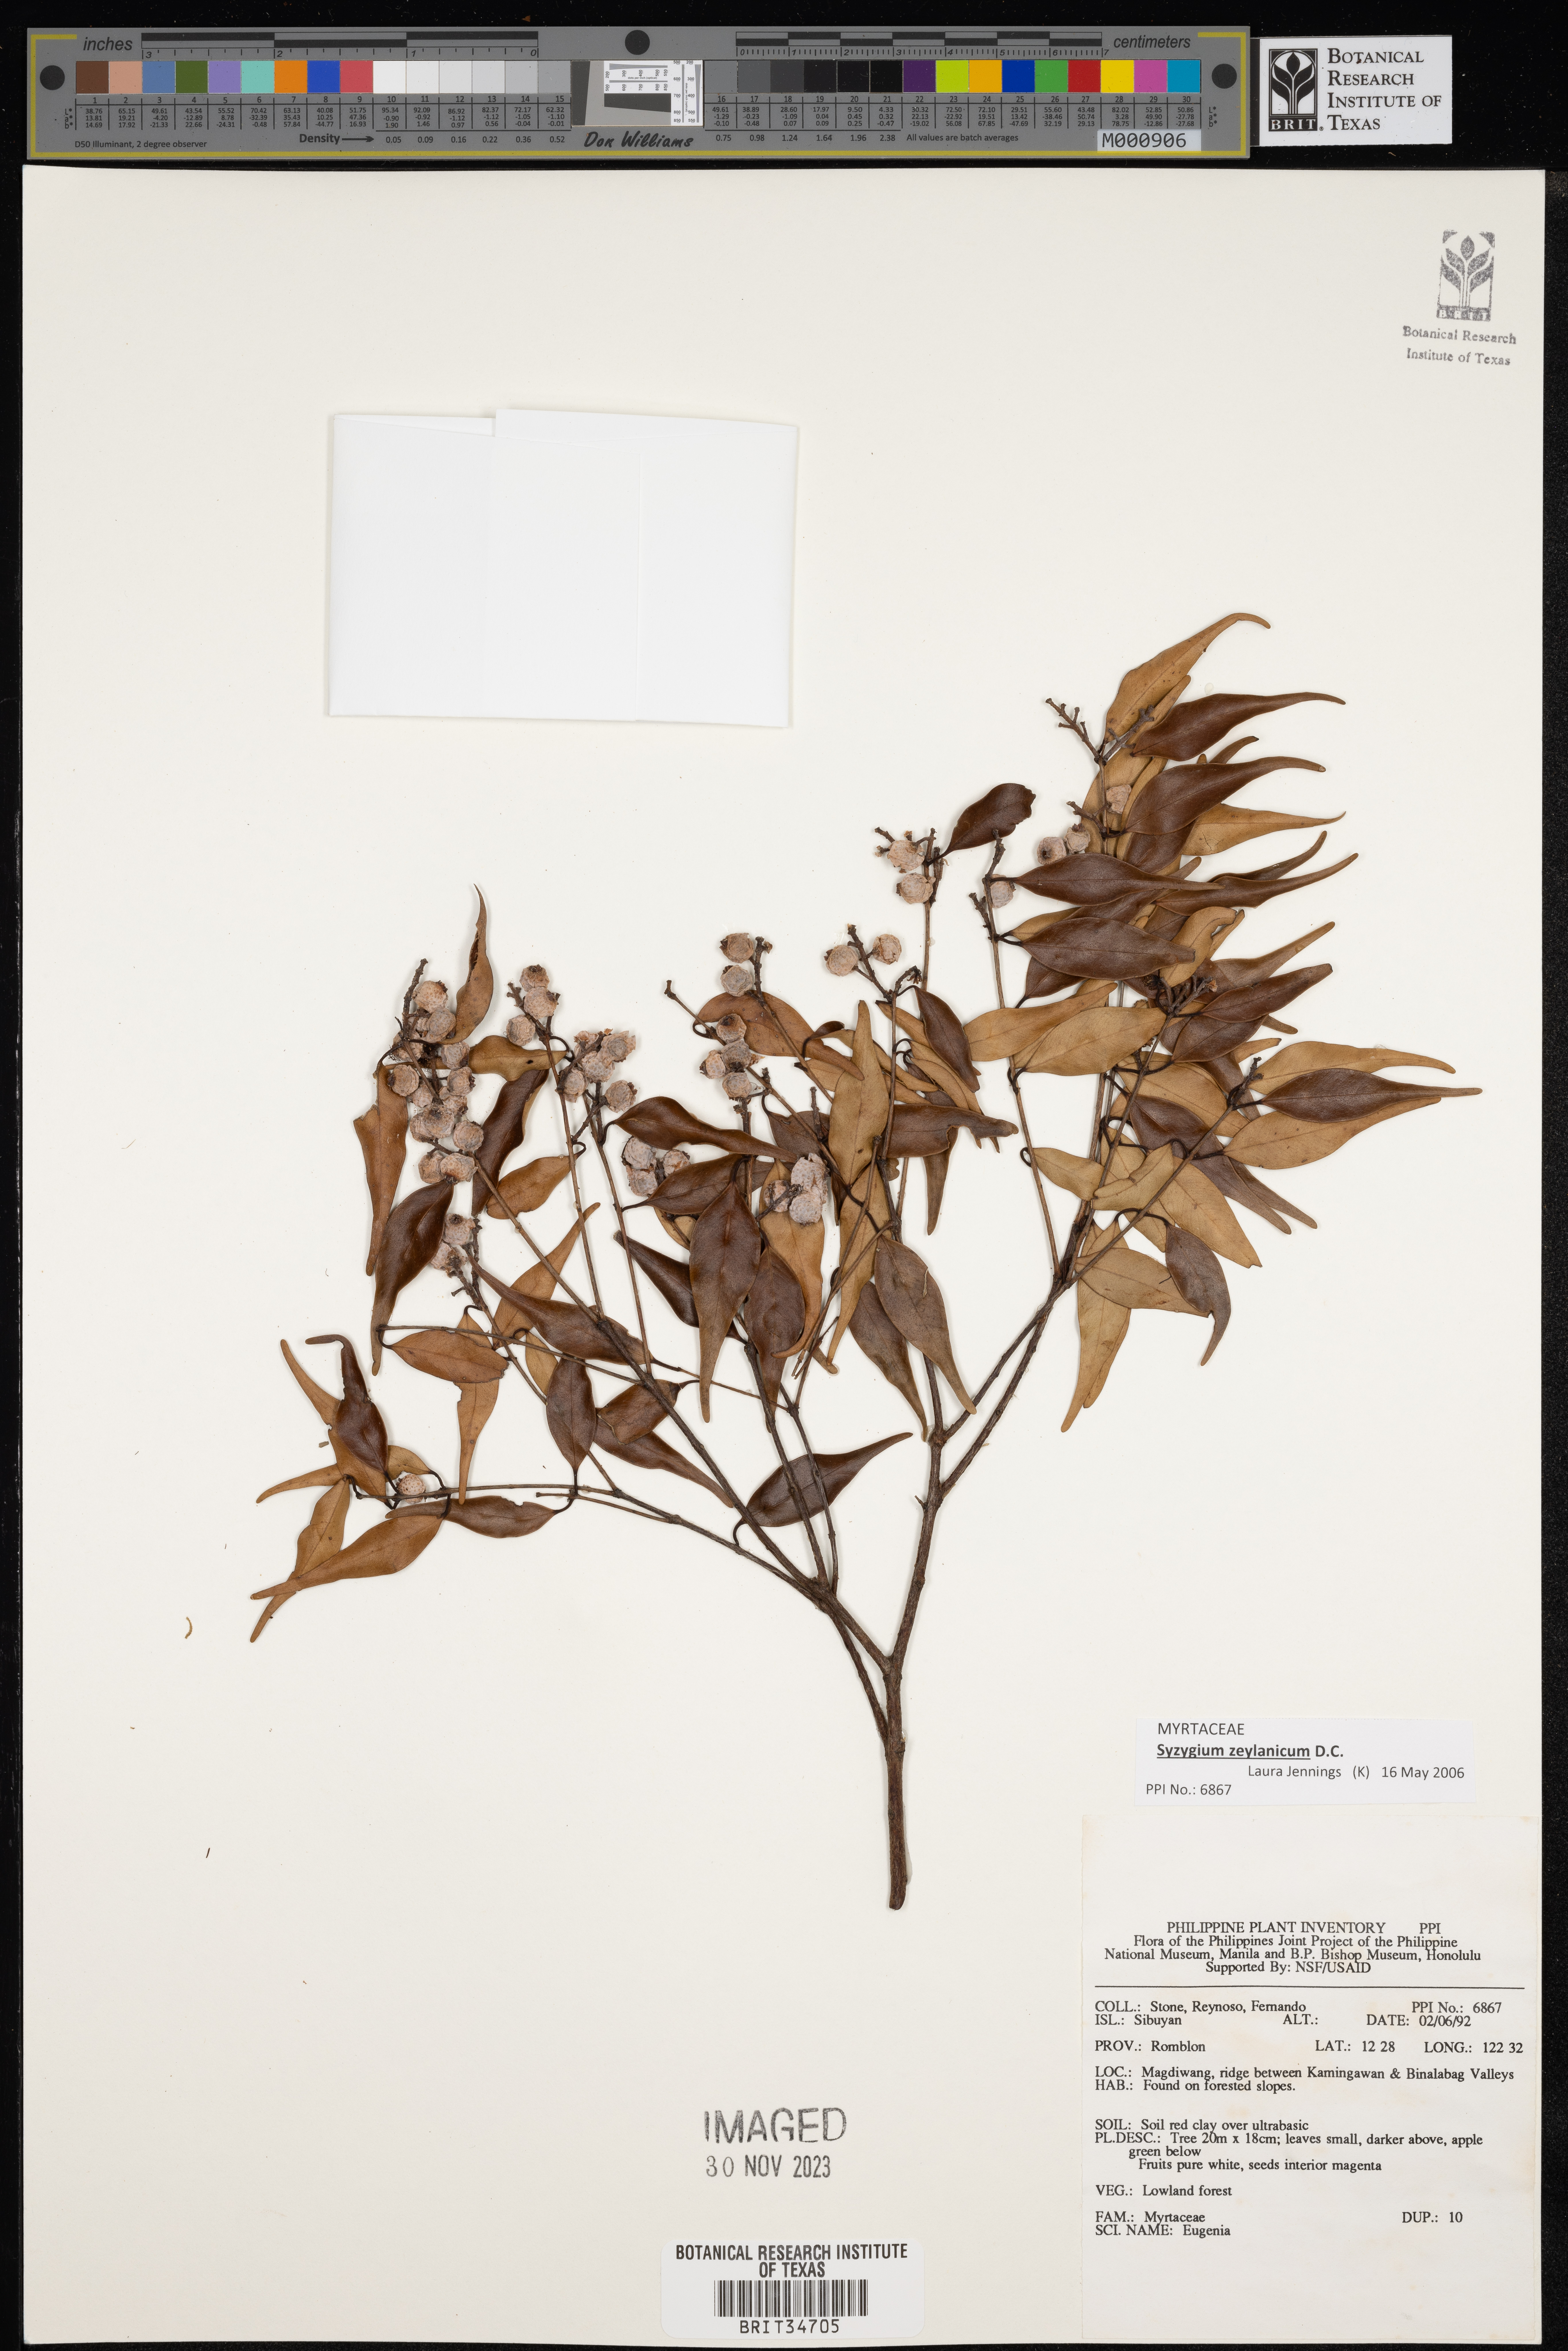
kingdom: Plantae
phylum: Tracheophyta
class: Magnoliopsida
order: Myrtales
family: Myrtaceae
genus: Eugenia
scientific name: Eugenia
